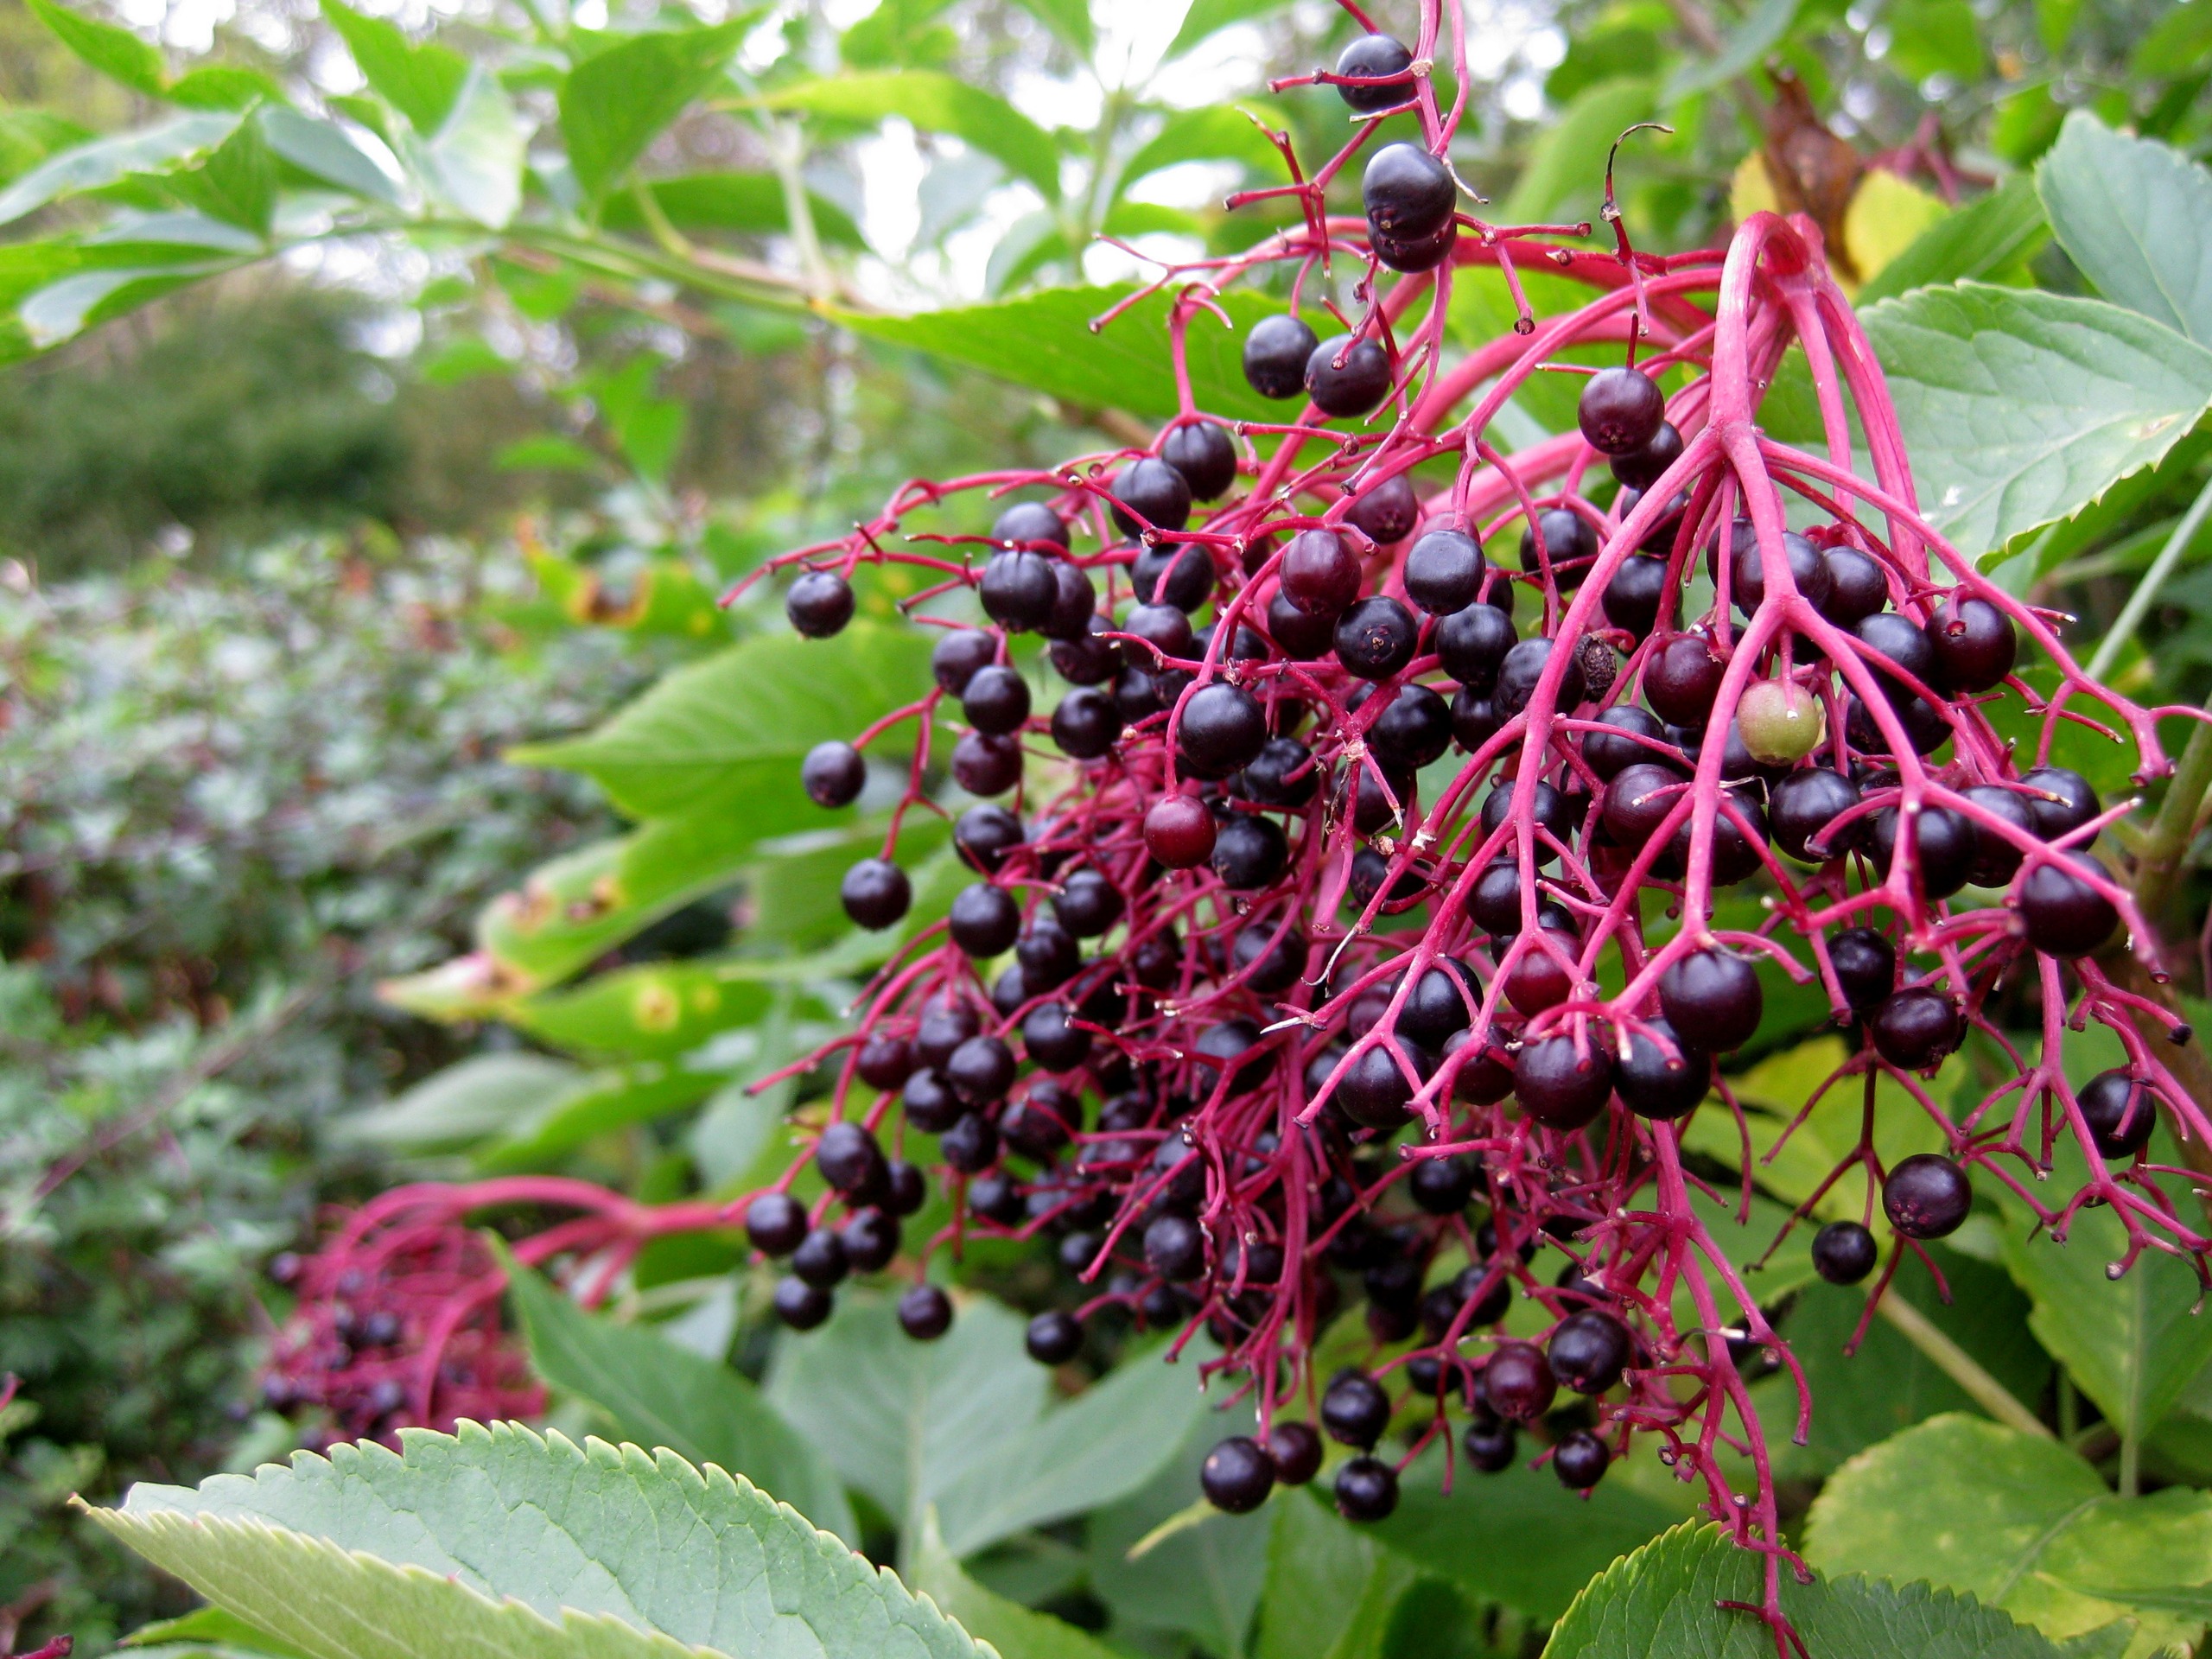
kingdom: Plantae
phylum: Tracheophyta
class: Magnoliopsida
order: Dipsacales
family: Viburnaceae
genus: Sambucus
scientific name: Sambucus nigra
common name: Almindelig hyld
